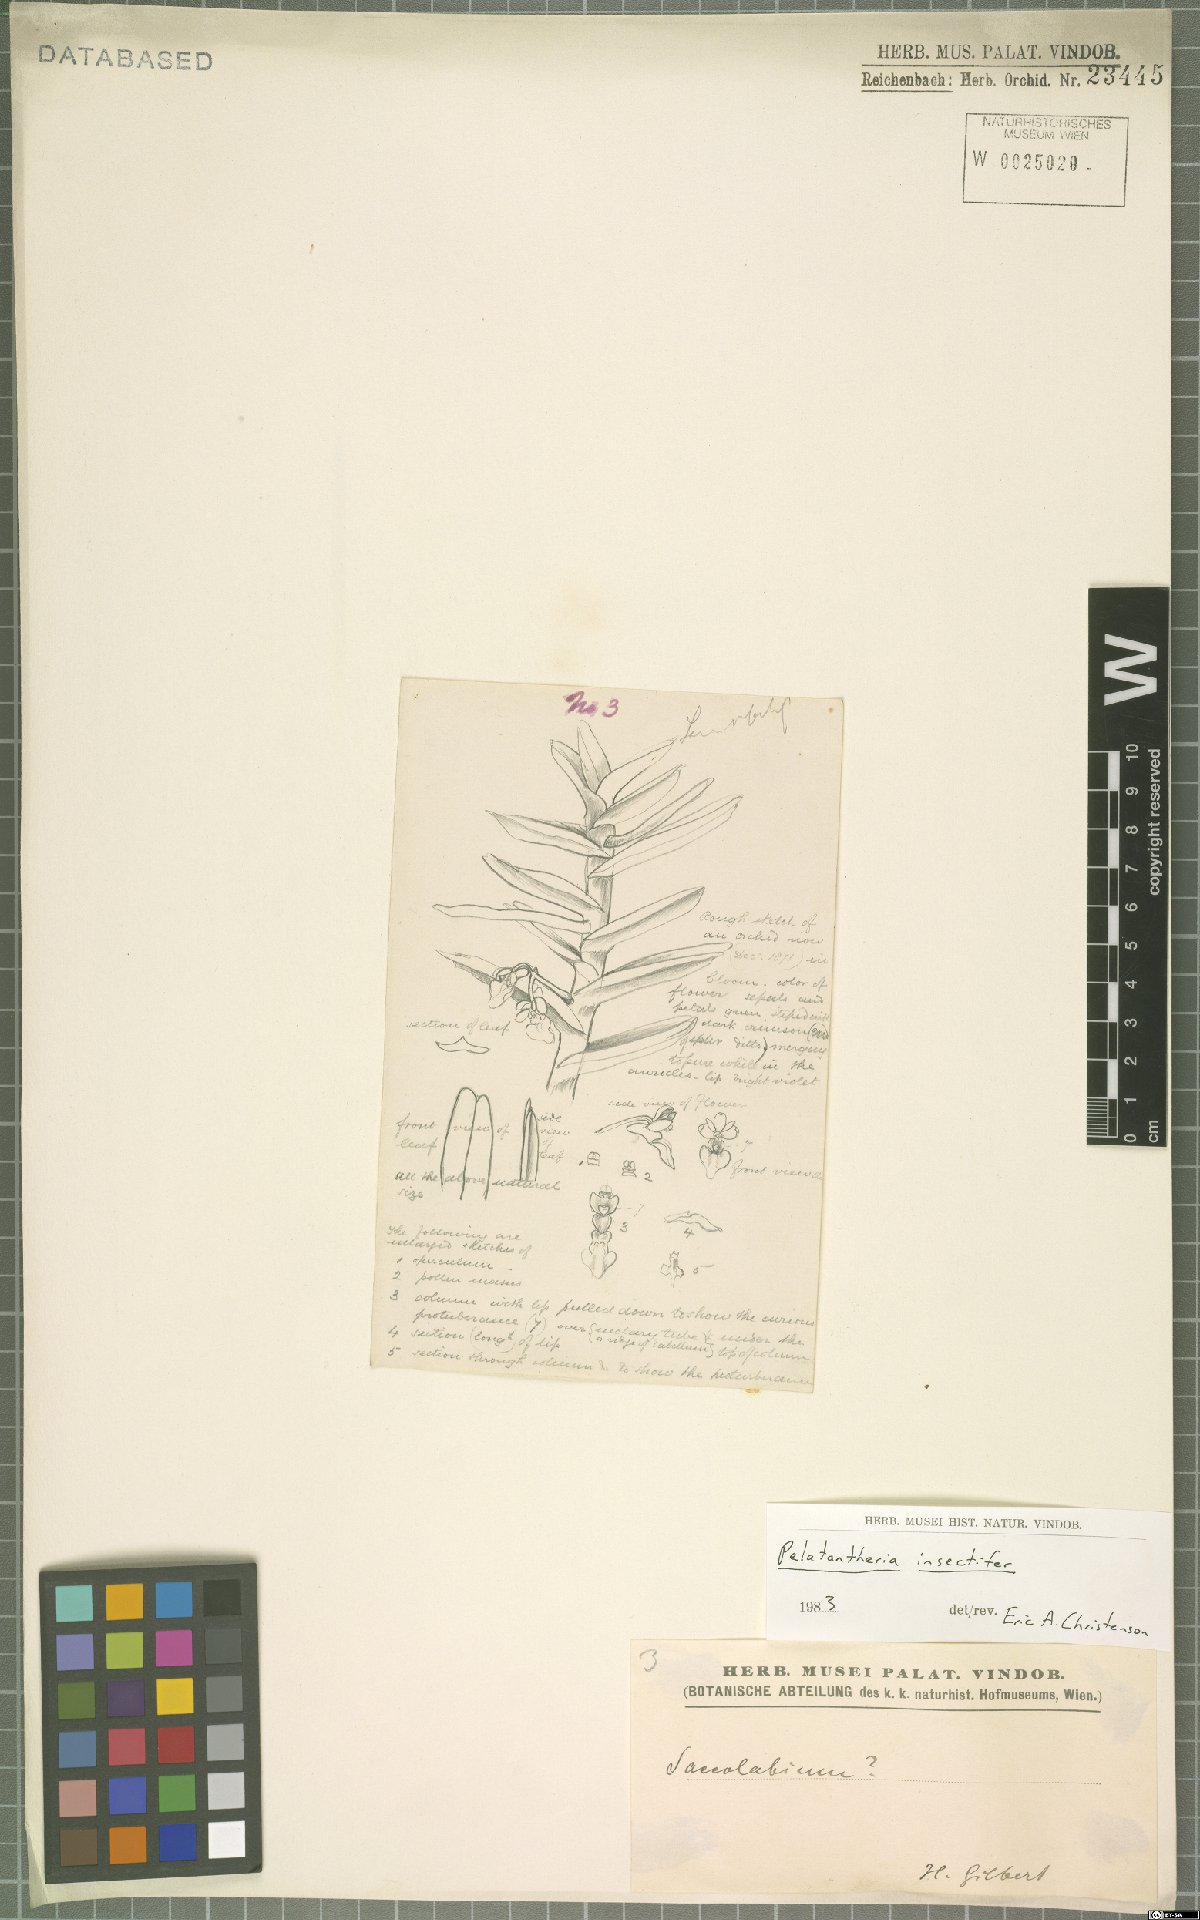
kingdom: Plantae
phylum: Tracheophyta
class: Liliopsida
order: Asparagales
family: Orchidaceae
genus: Pelatantheria
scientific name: Pelatantheria insectifera
